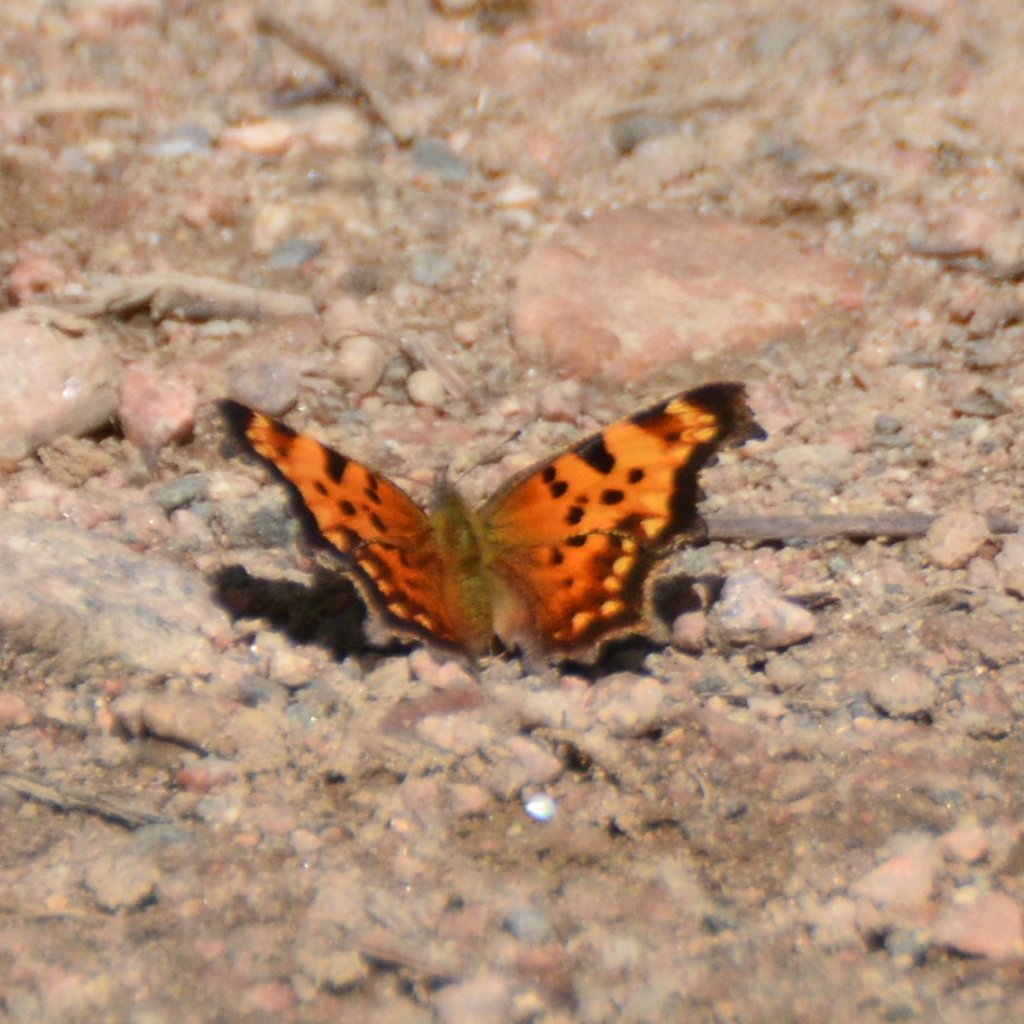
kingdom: Animalia
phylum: Arthropoda
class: Insecta
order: Lepidoptera
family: Nymphalidae
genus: Polygonia
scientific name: Polygonia faunus
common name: Green Comma
